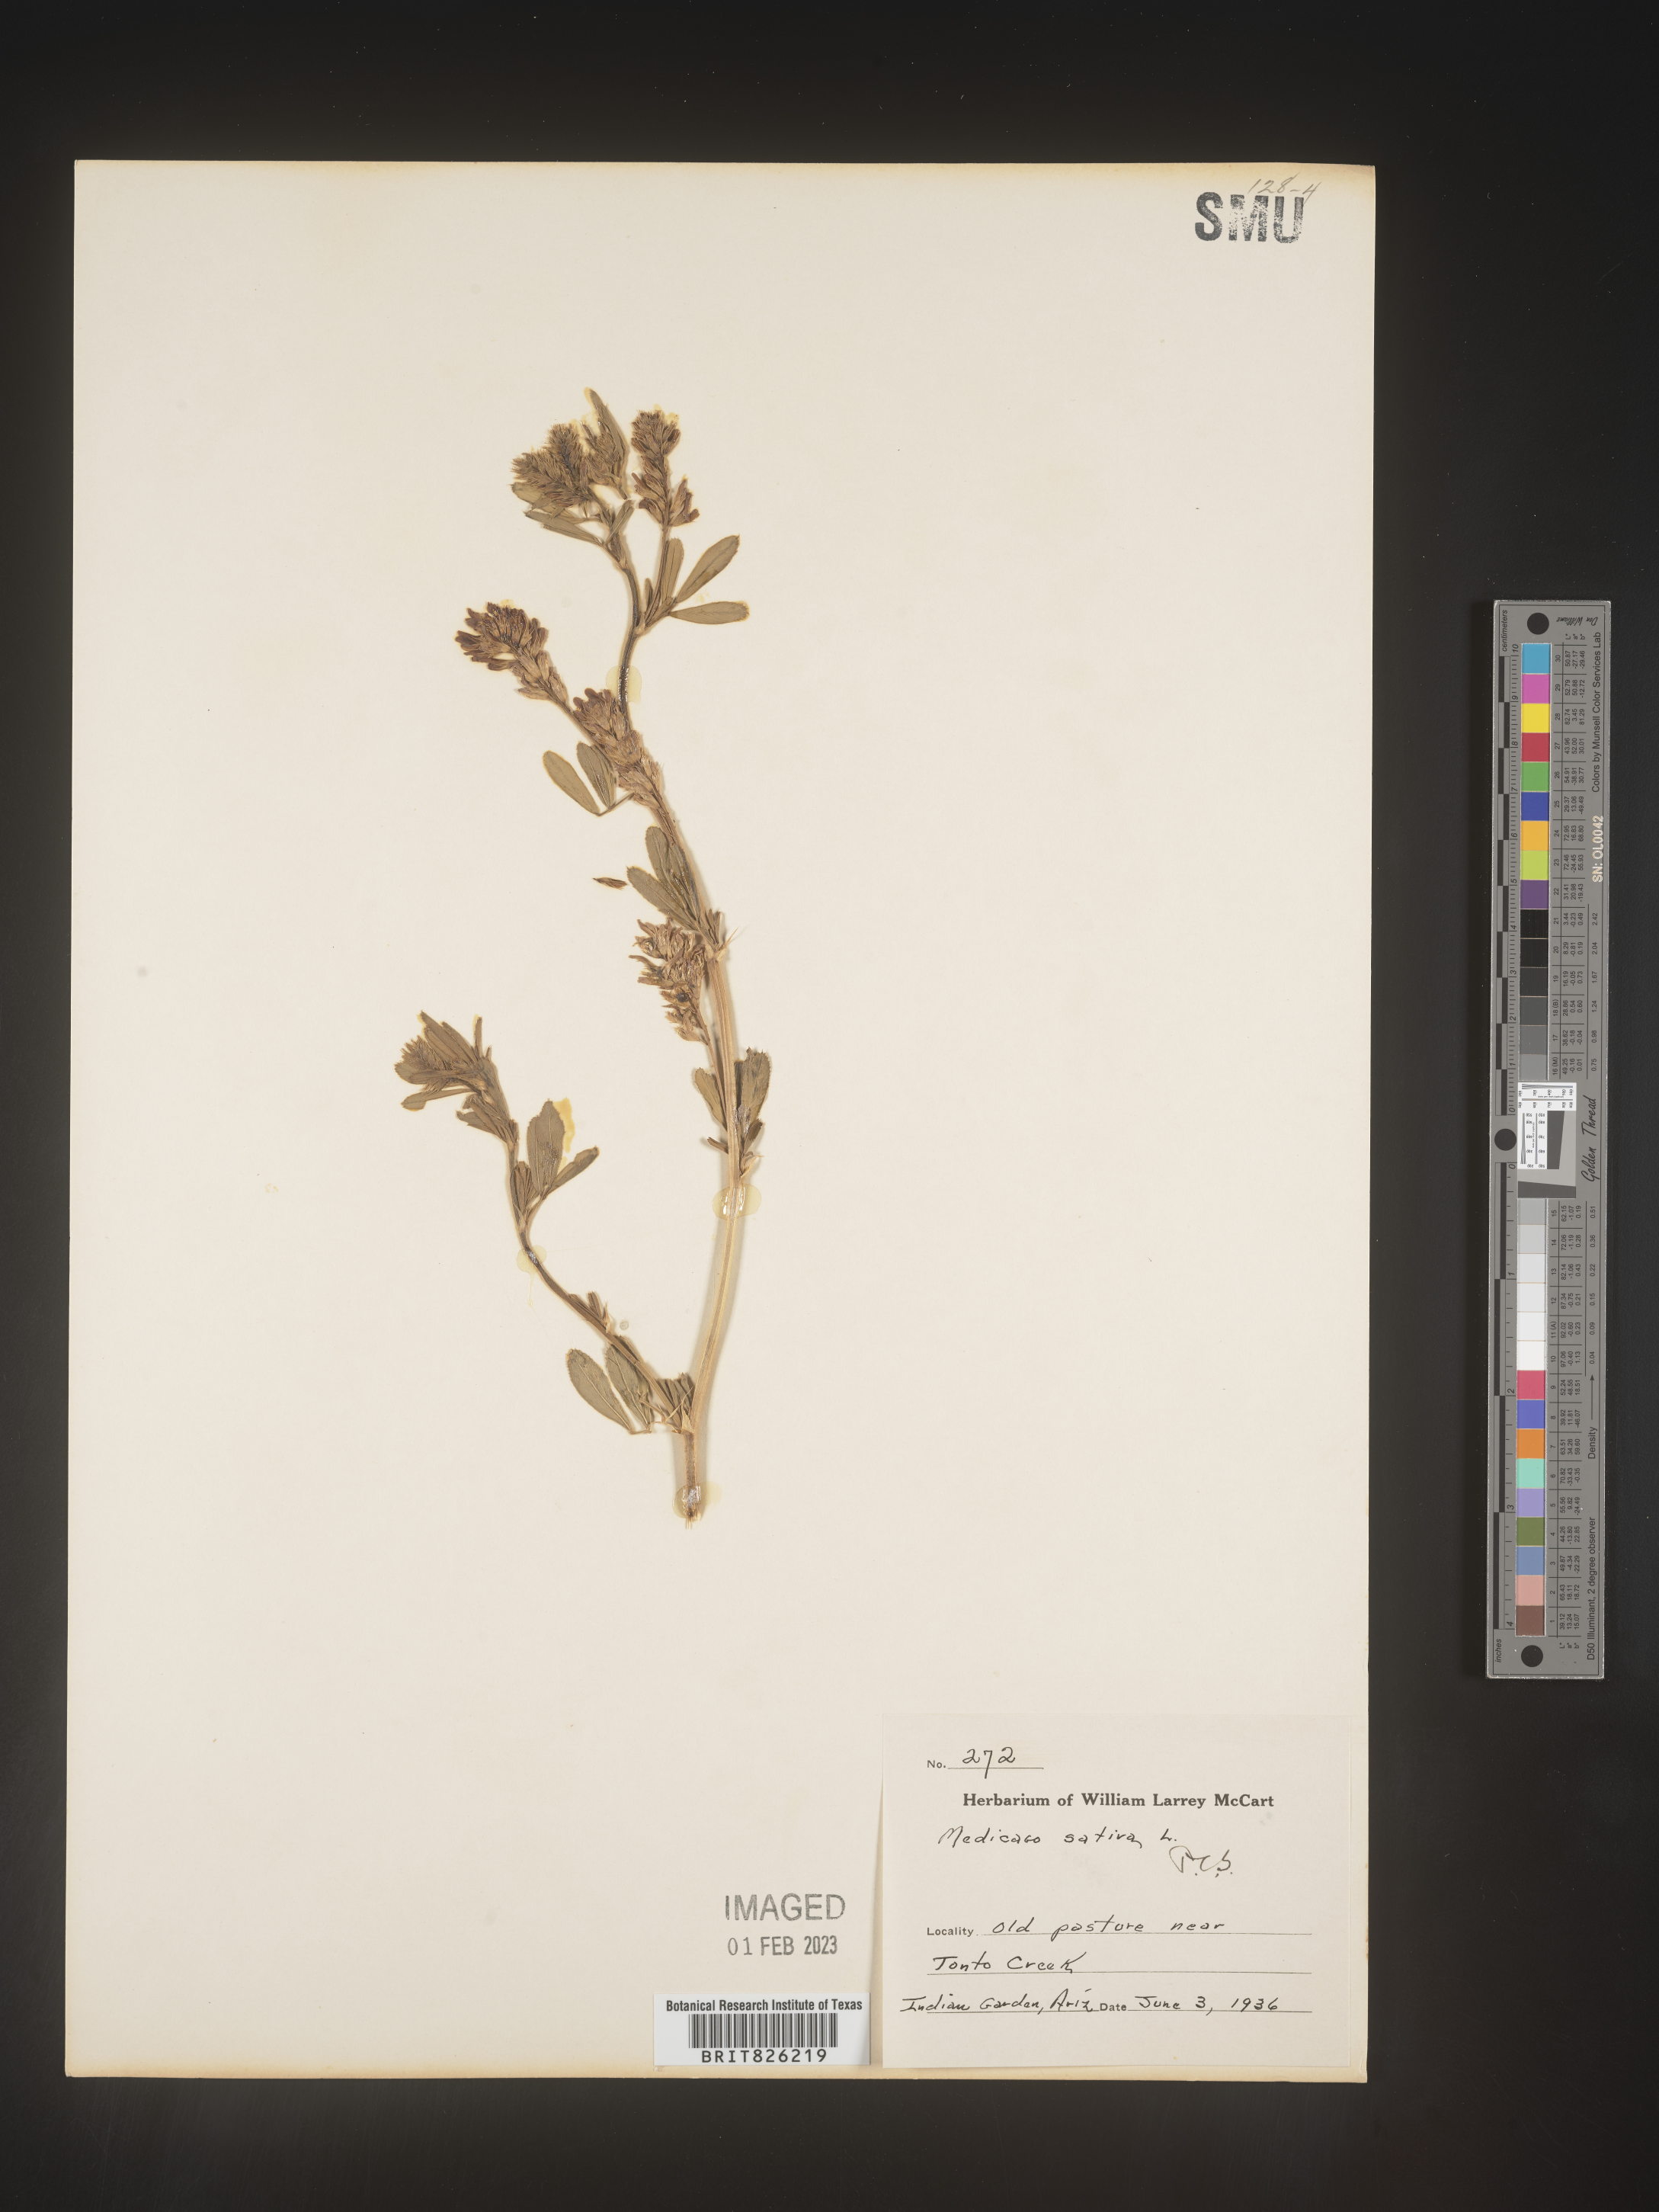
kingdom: Plantae
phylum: Tracheophyta
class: Magnoliopsida
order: Fabales
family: Fabaceae
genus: Medicago
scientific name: Medicago sativa
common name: Alfalfa
